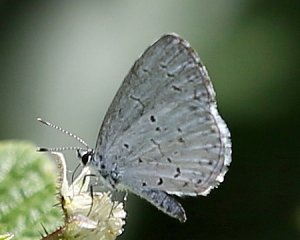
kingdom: Animalia
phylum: Arthropoda
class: Insecta
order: Lepidoptera
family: Lycaenidae
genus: Celastrina
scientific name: Celastrina serotina
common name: Cherry Gall Azure
